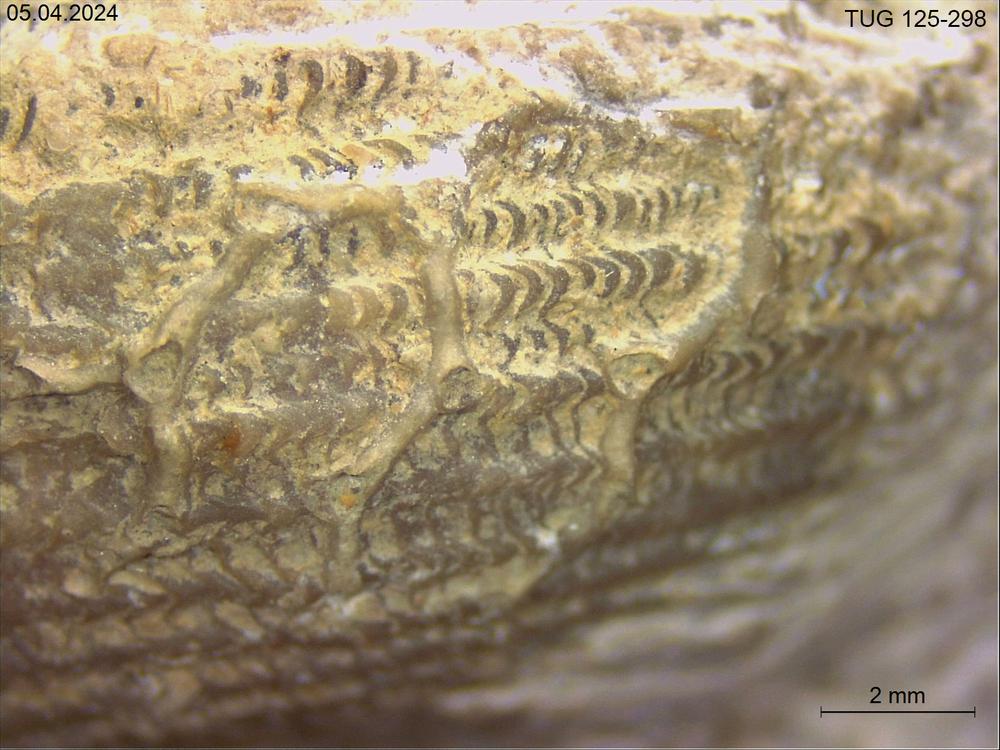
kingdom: Animalia
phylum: Cnidaria
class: Anthozoa
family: Auloporidae
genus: Aulopora
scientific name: Aulopora
